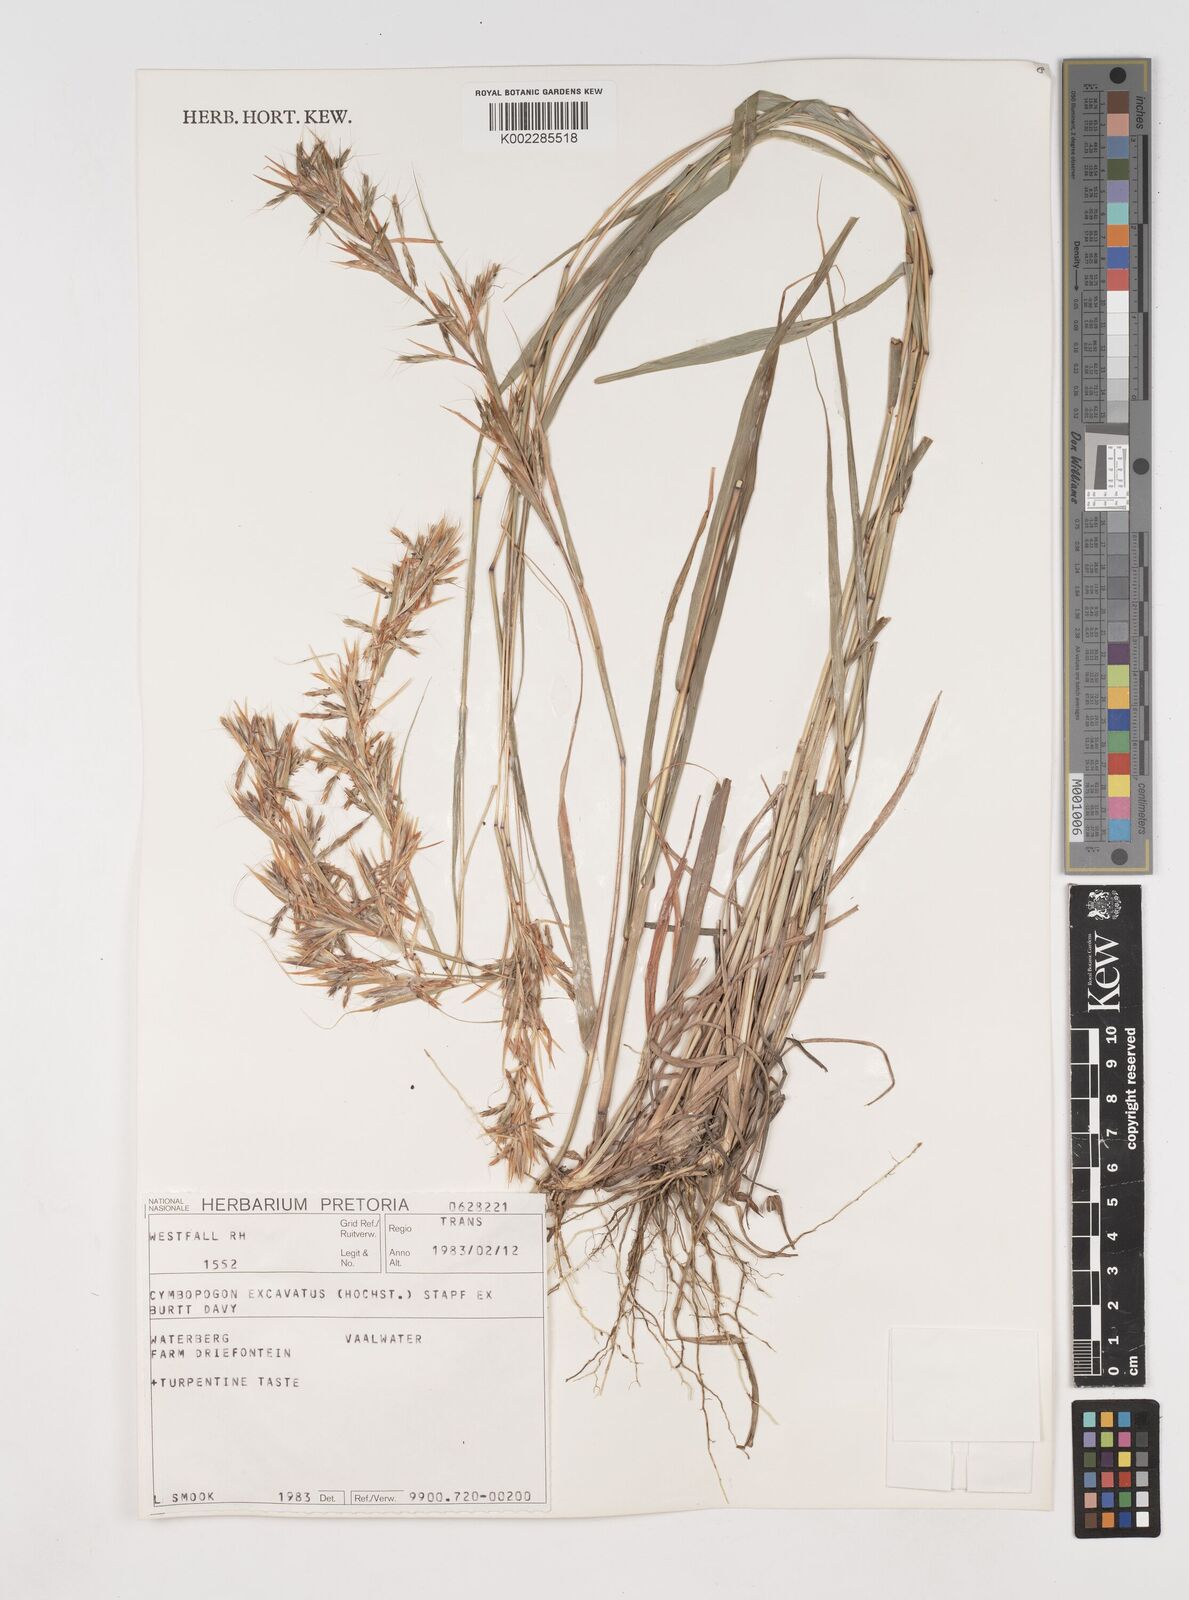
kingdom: Plantae
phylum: Tracheophyta
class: Liliopsida
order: Poales
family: Poaceae
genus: Cymbopogon
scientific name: Cymbopogon caesius
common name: Kachi grass
